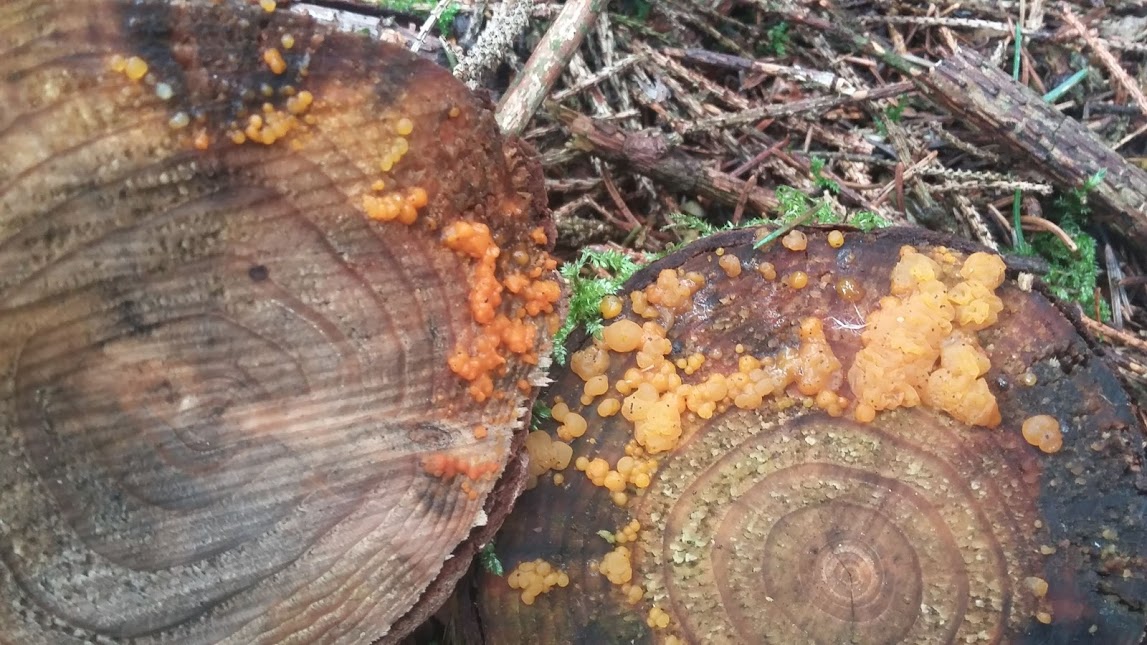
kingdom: Fungi
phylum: Basidiomycota
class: Dacrymycetes
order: Dacrymycetales
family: Dacrymycetaceae
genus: Dacrymyces
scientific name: Dacrymyces stillatus
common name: almindelig tåresvamp
